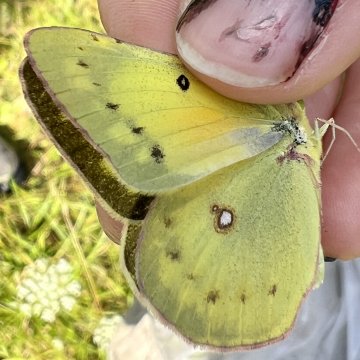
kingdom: Animalia
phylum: Arthropoda
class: Insecta
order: Lepidoptera
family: Pieridae
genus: Colias
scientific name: Colias eurytheme
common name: Orange Sulphur
